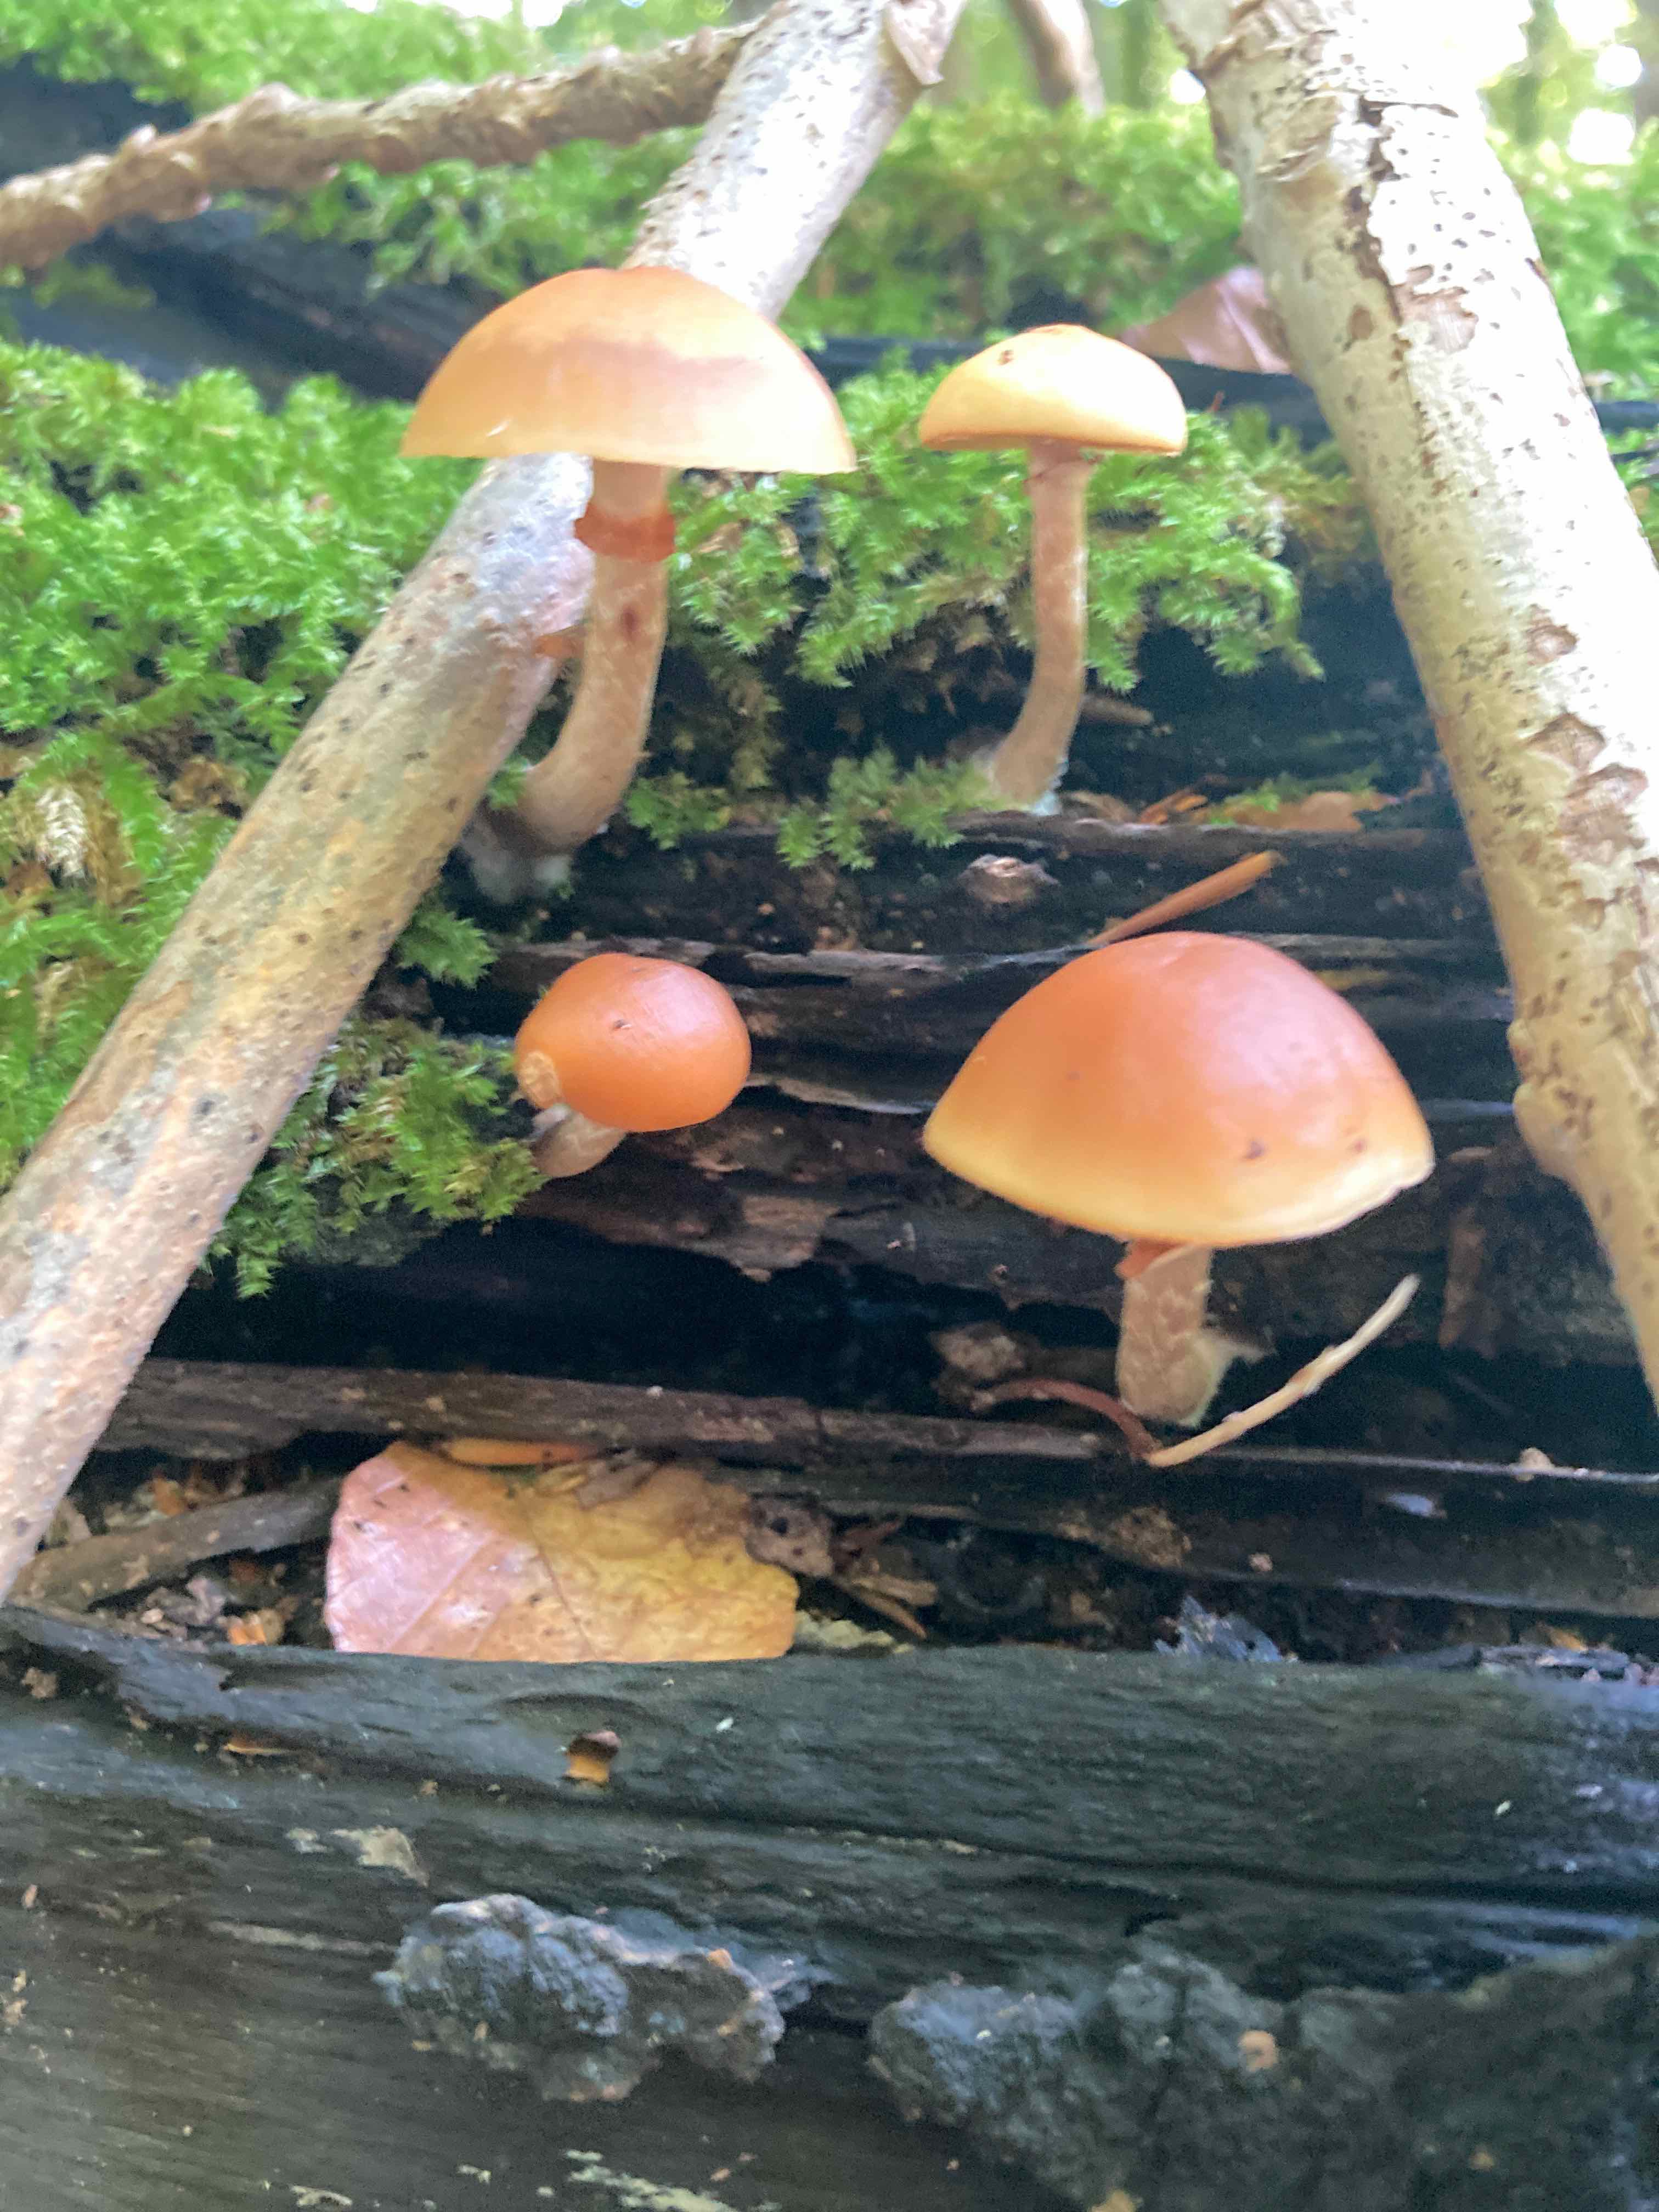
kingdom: Fungi
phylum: Basidiomycota
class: Agaricomycetes
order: Agaricales
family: Hymenogastraceae
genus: Galerina
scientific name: Galerina marginata
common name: randbæltet hjelmhat
